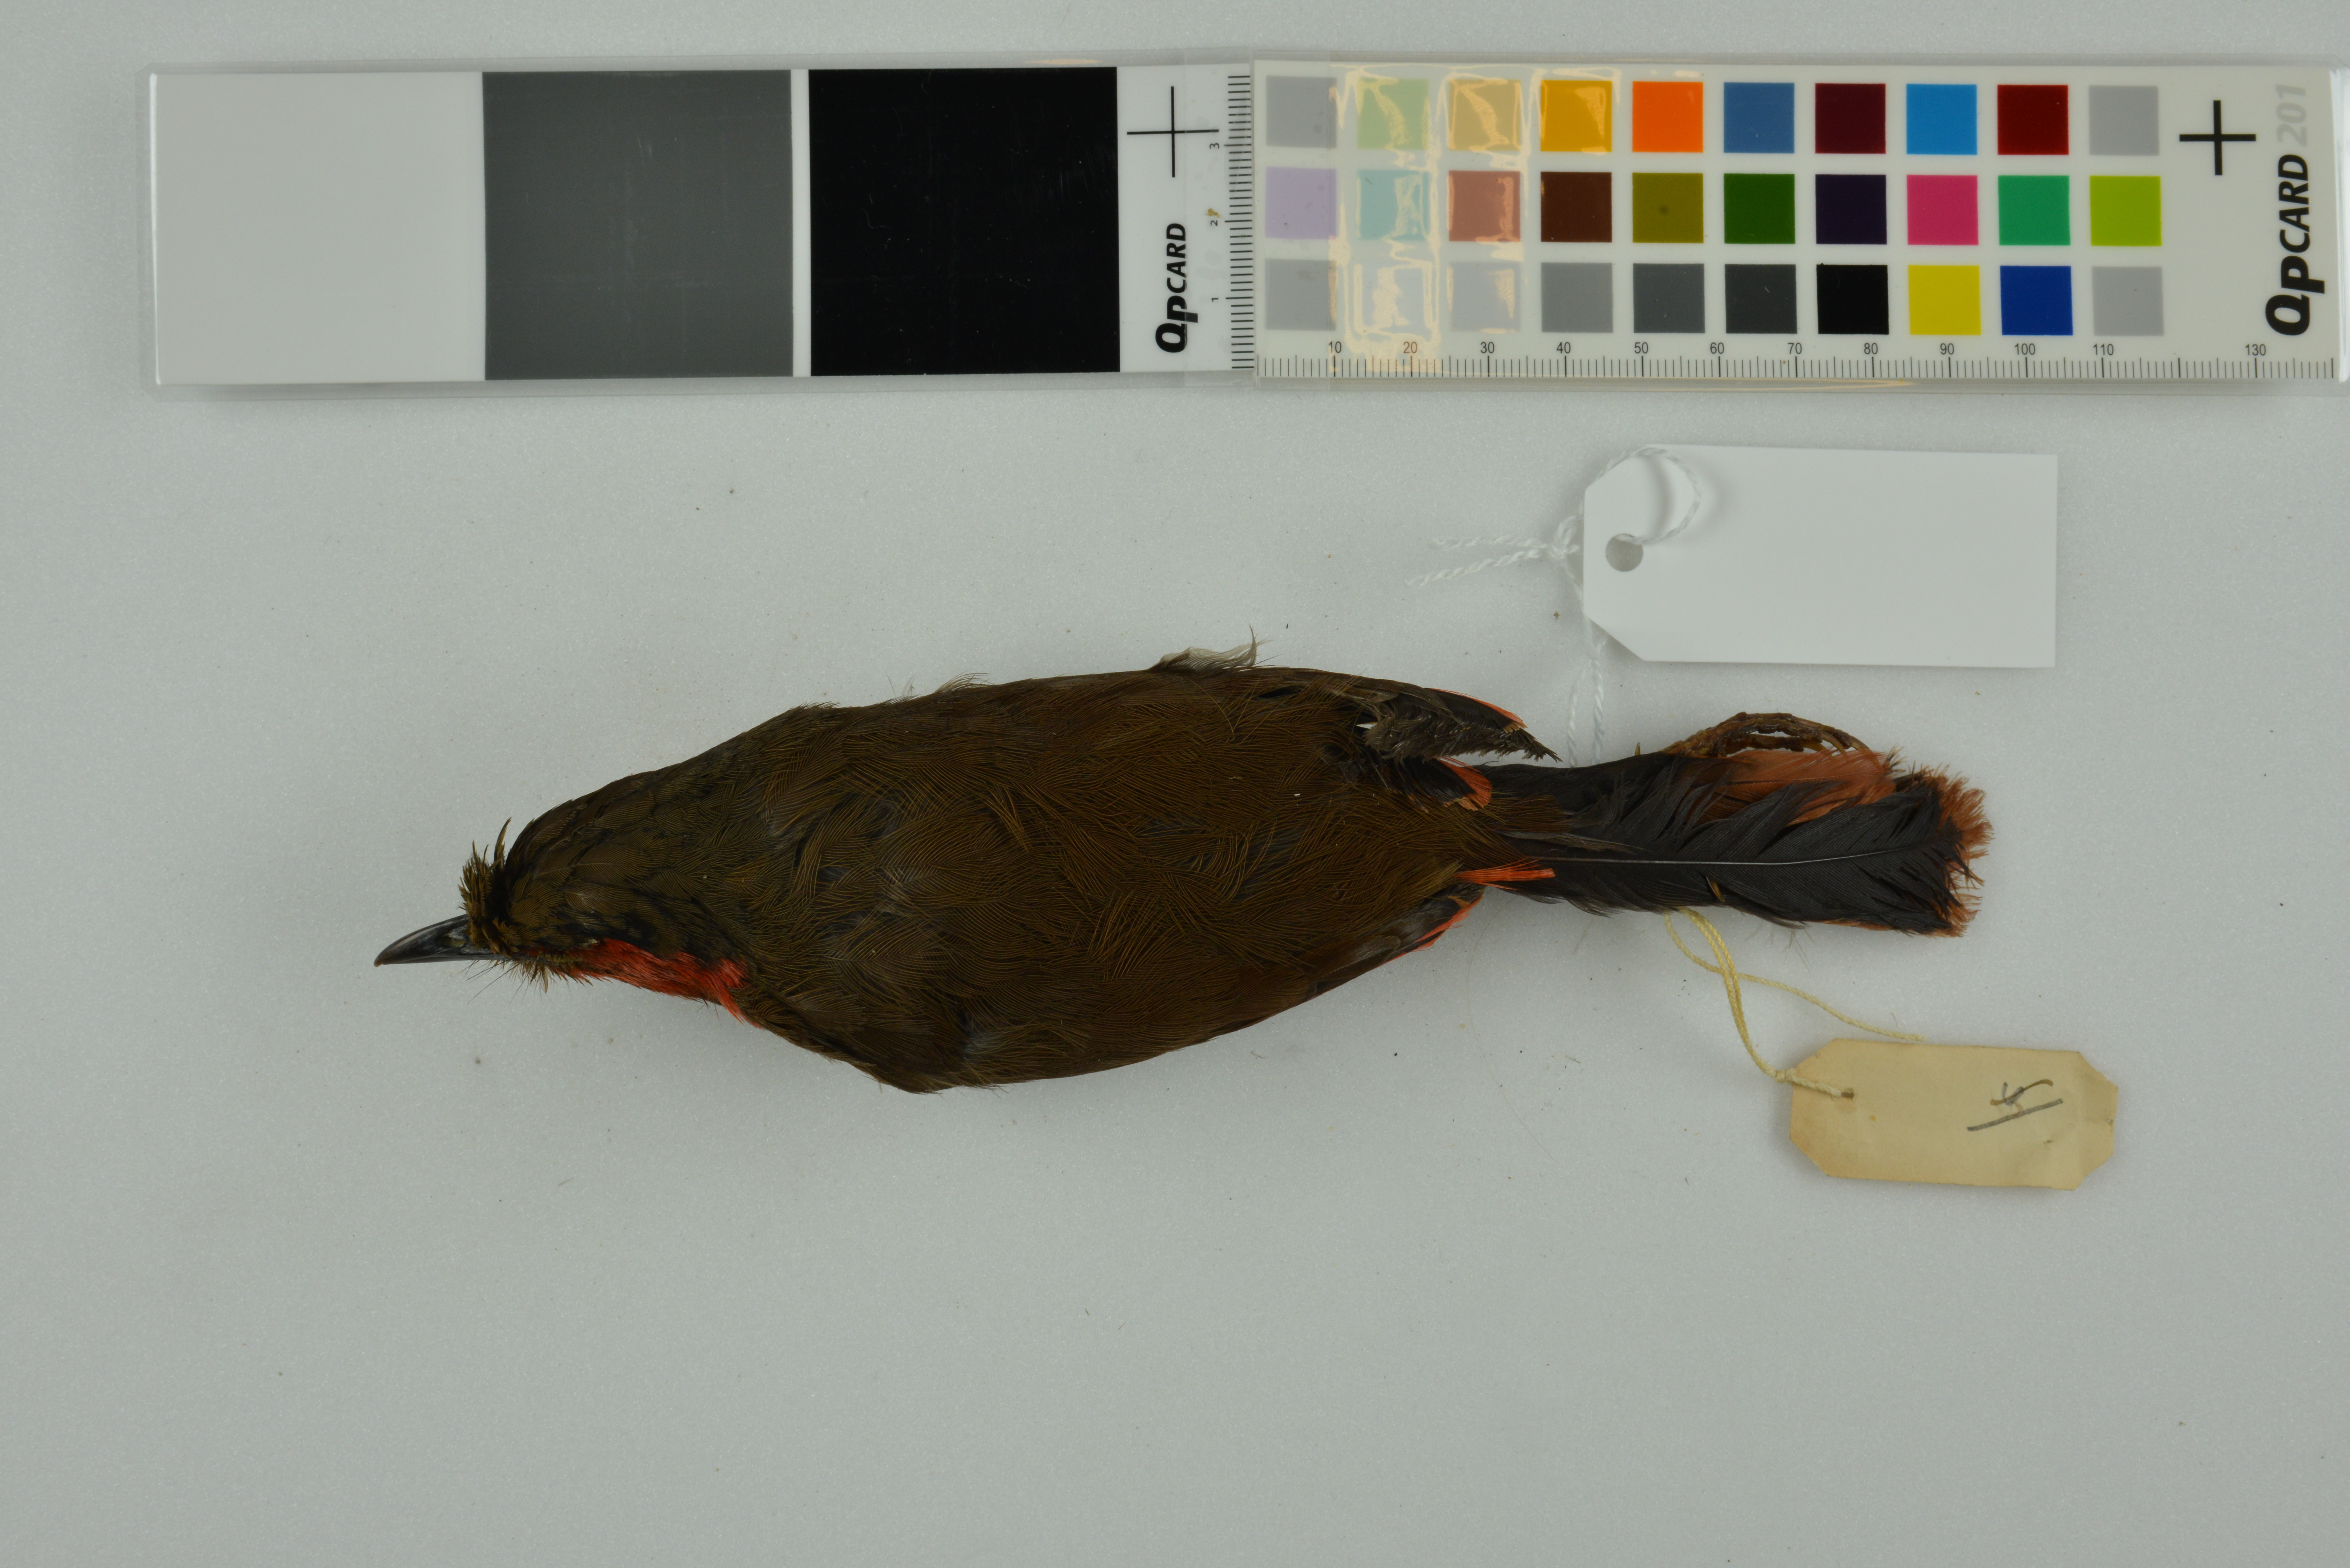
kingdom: Animalia
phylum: Chordata
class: Aves
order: Passeriformes
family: Leiothrichidae
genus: Liocichla
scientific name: Liocichla phoenicea
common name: Red-faced liocichla
